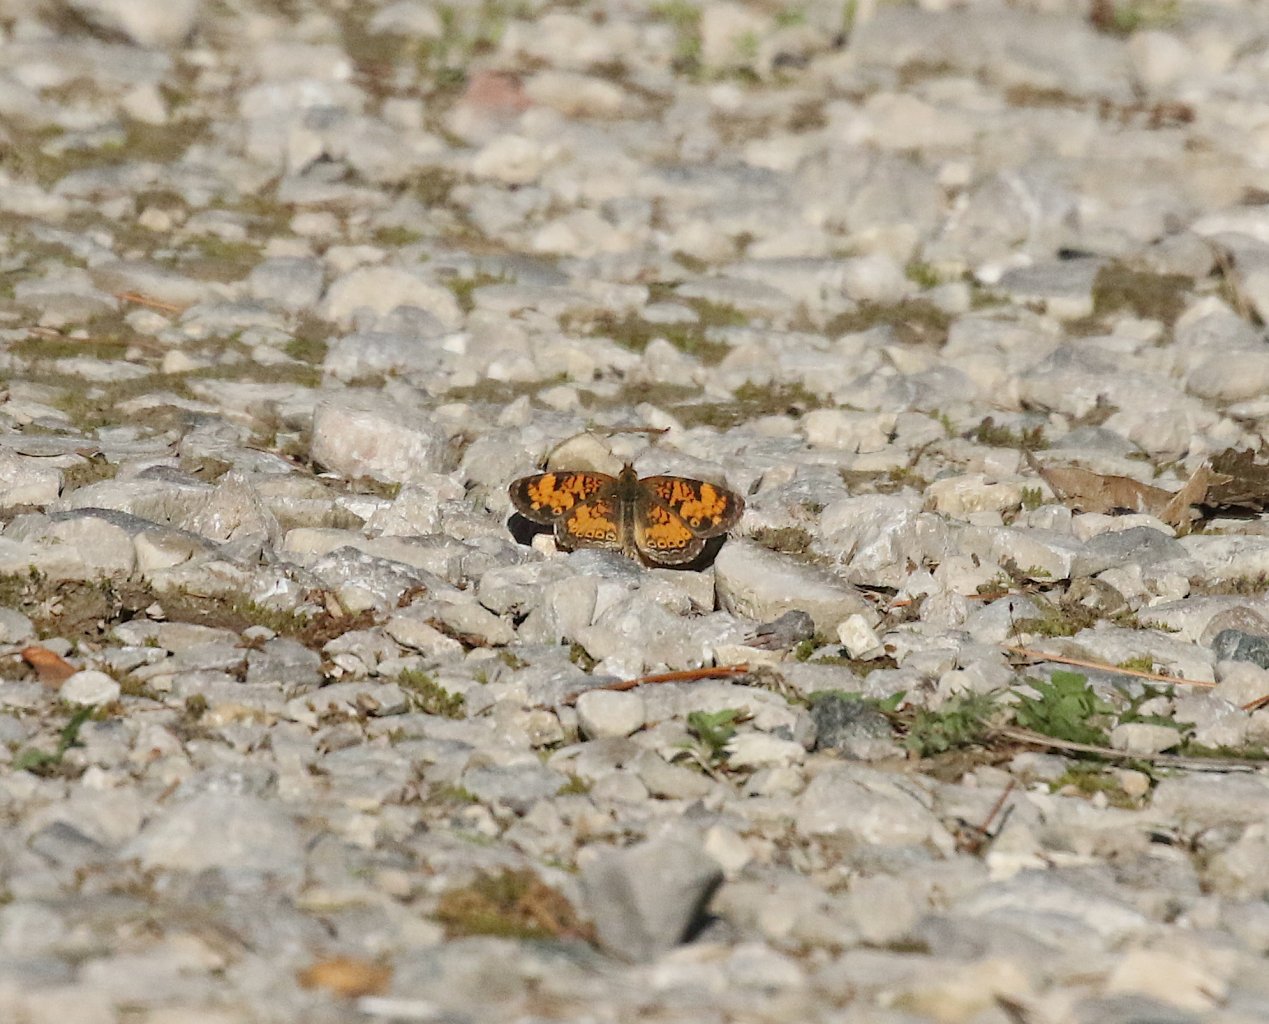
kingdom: Animalia
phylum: Arthropoda
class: Insecta
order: Lepidoptera
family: Nymphalidae
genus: Phyciodes
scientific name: Phyciodes tharos
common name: Northern Crescent
